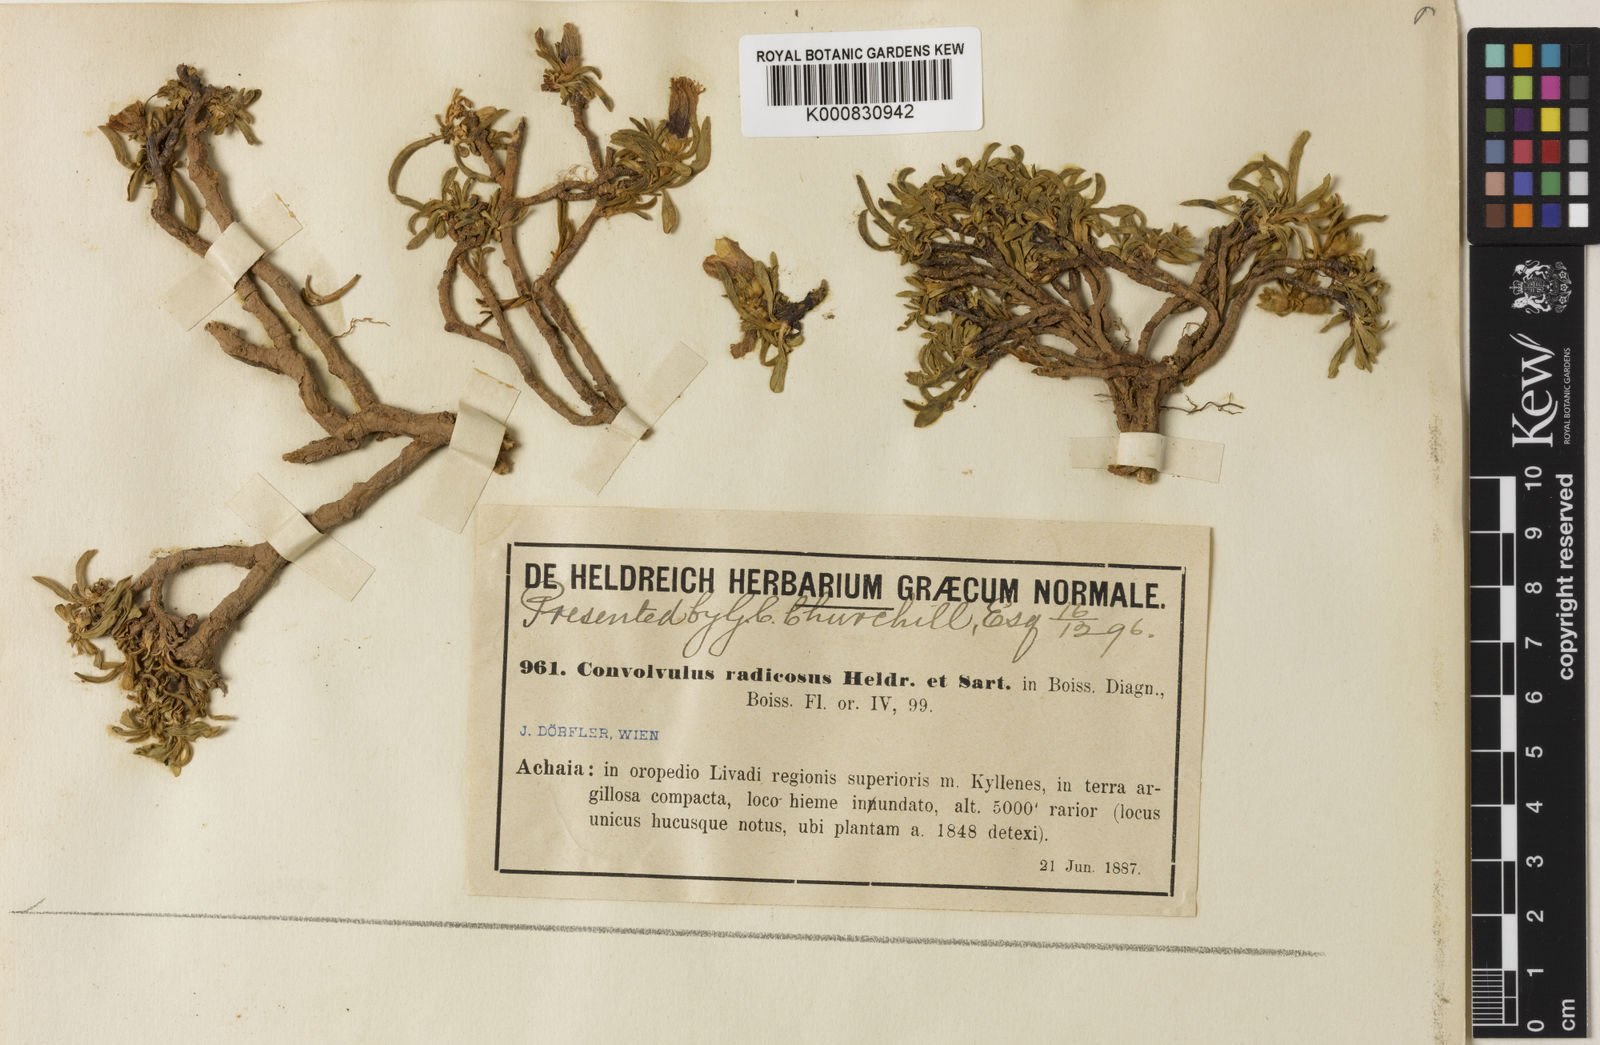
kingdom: Plantae
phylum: Tracheophyta
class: Magnoliopsida
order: Solanales
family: Convolvulaceae
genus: Convolvulus
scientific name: Convolvulus libanoticus
